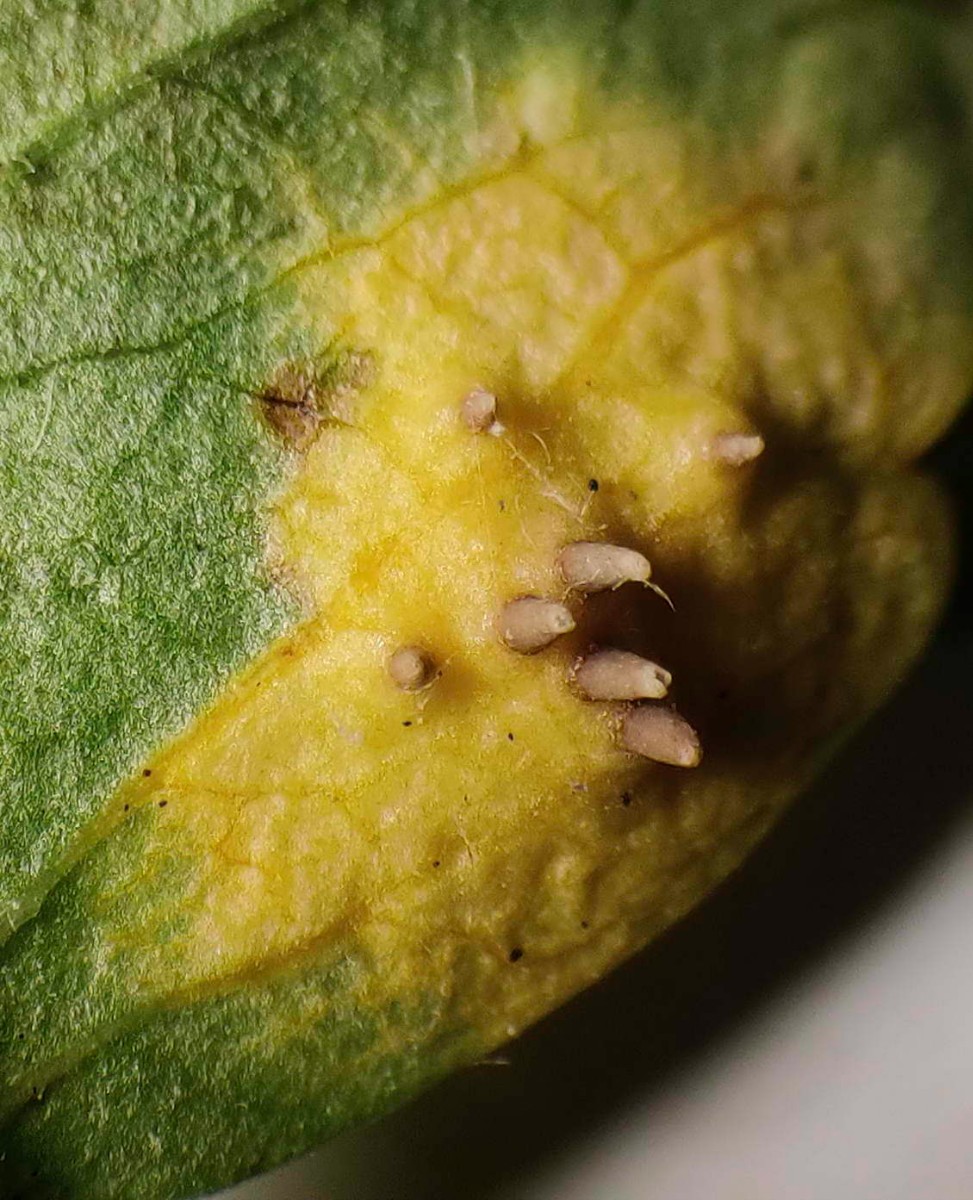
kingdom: Fungi
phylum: Basidiomycota
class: Pucciniomycetes
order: Pucciniales
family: Gymnosporangiaceae
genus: Gymnosporangium
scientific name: Gymnosporangium cornutum
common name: rønnehorn-bævrerust
